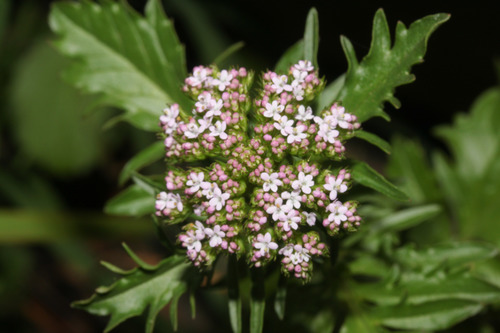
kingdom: Plantae
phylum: Tracheophyta
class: Magnoliopsida
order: Dipsacales
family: Caprifoliaceae
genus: Centranthus
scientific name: Centranthus calcitrapae
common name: Annual valerian
